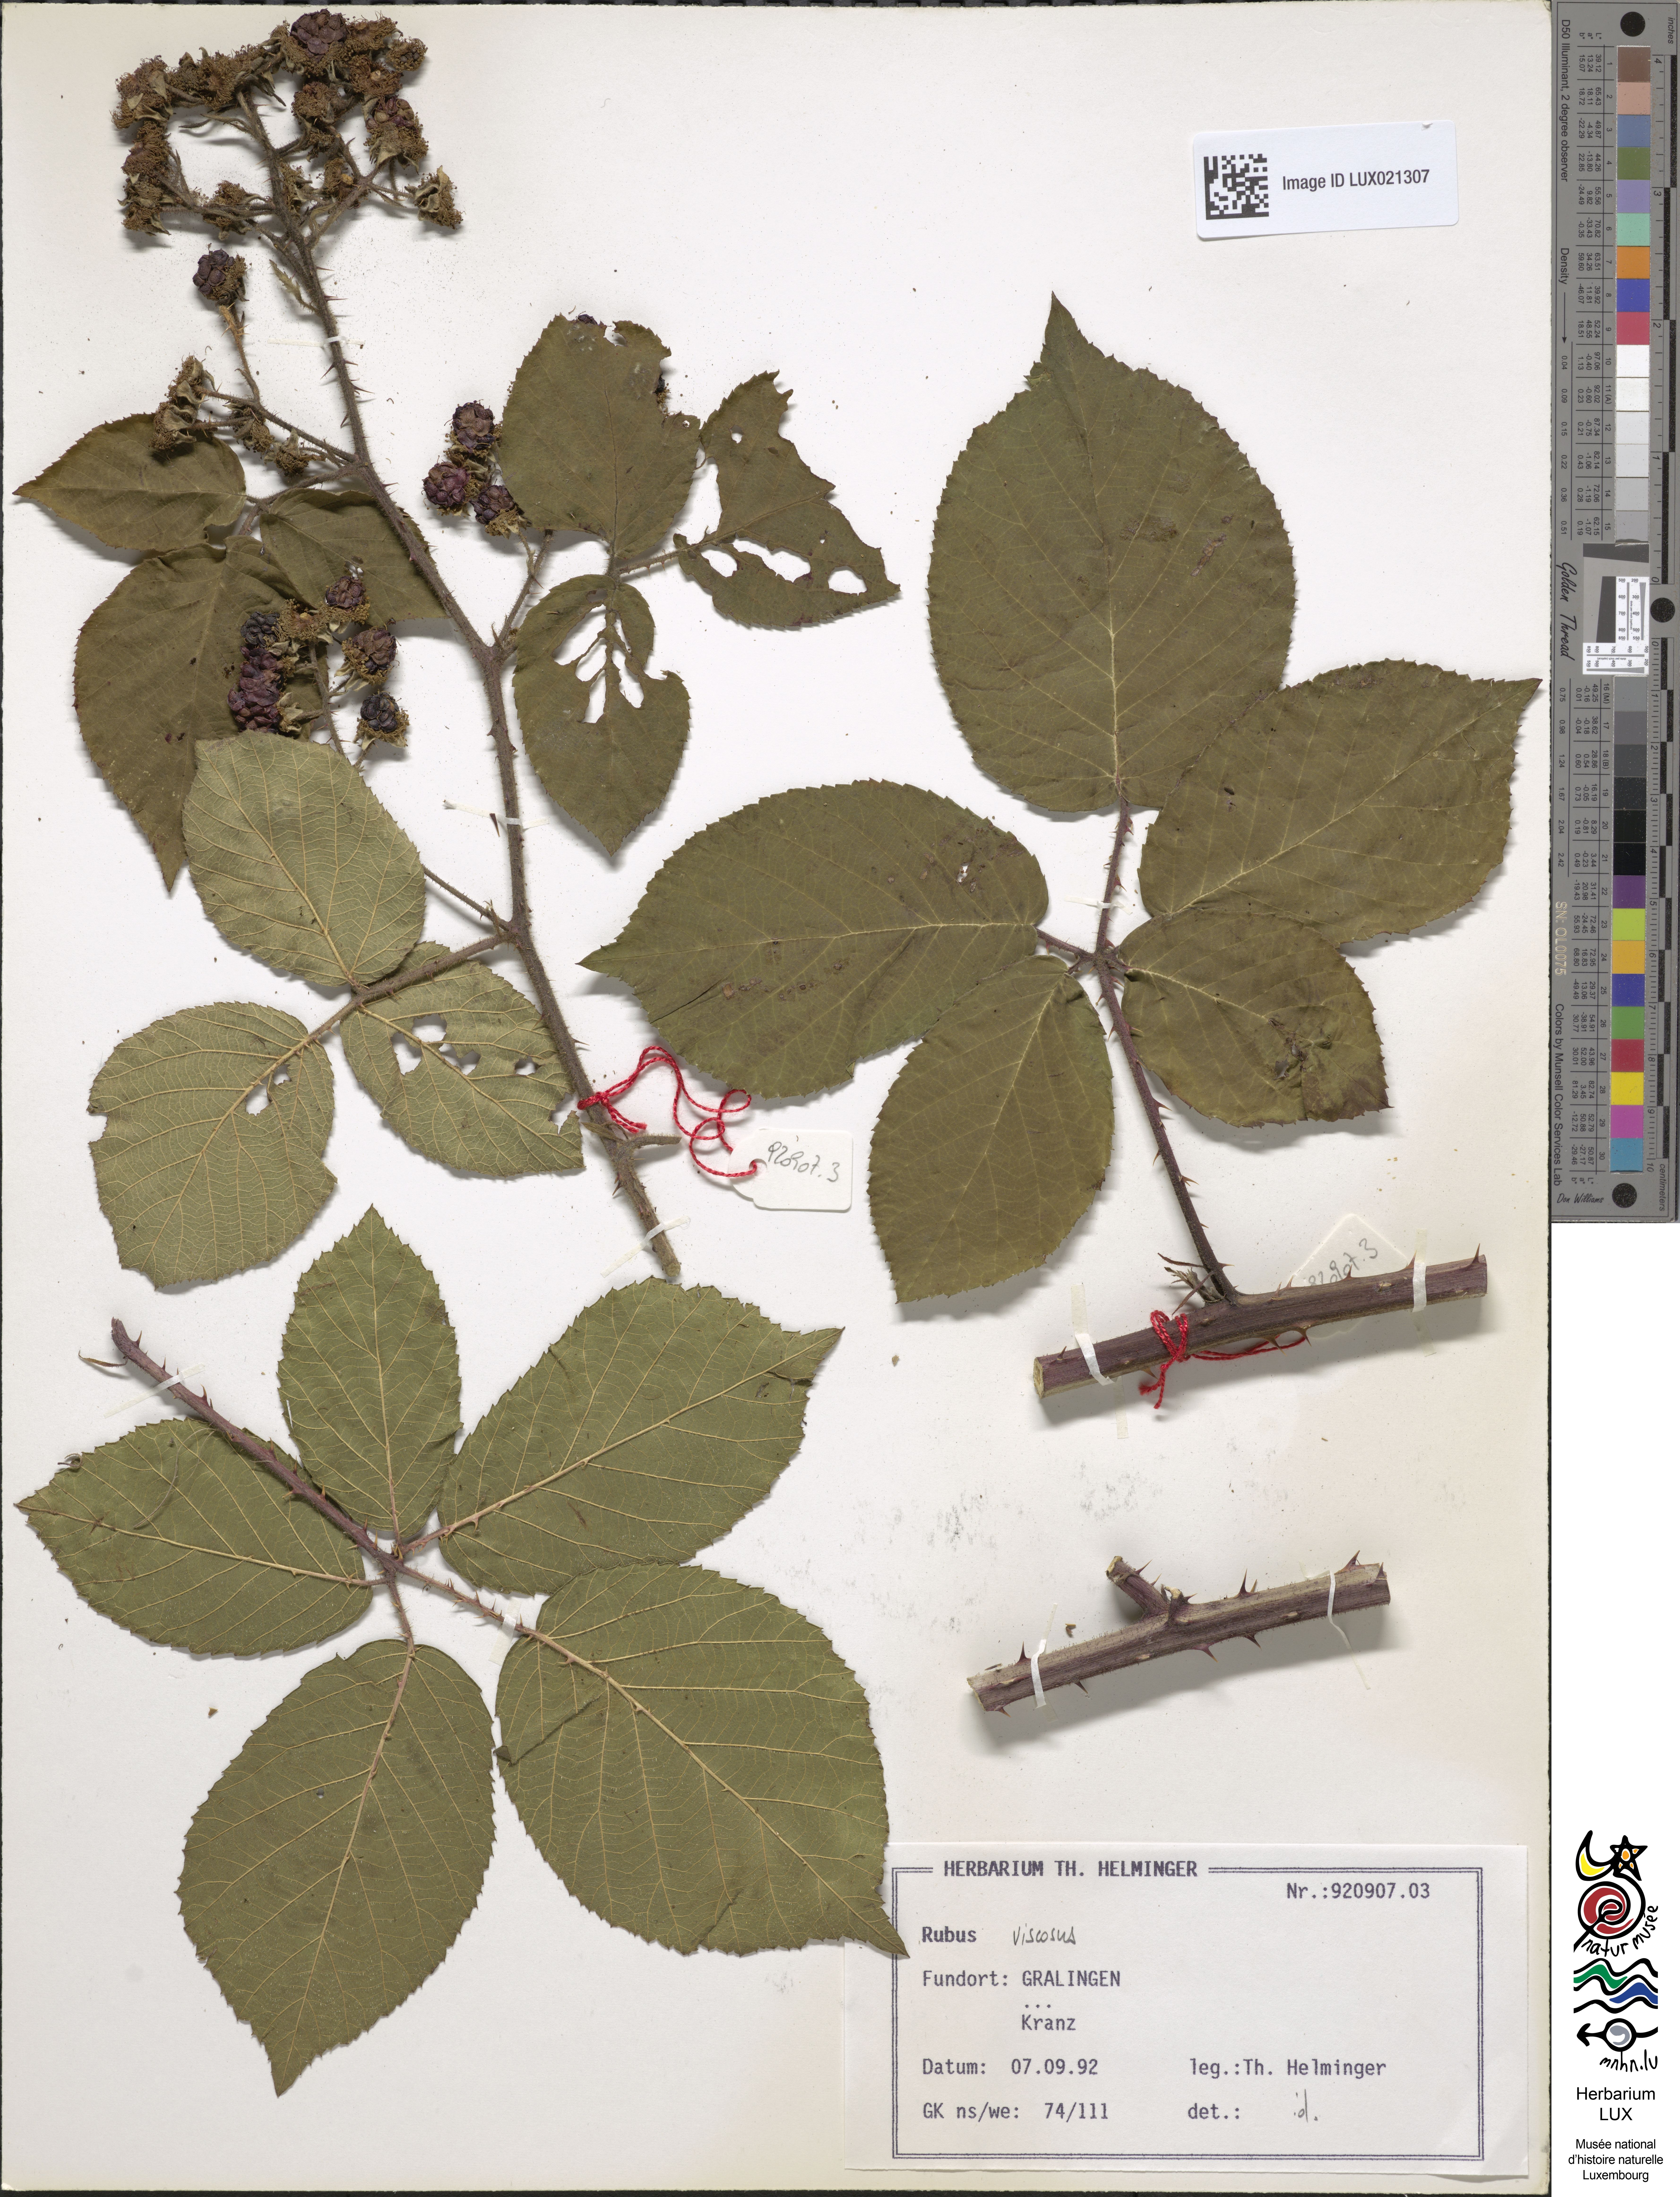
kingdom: Plantae
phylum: Tracheophyta
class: Magnoliopsida
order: Rosales
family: Rosaceae
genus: Rubus
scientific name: Rubus viscosus
